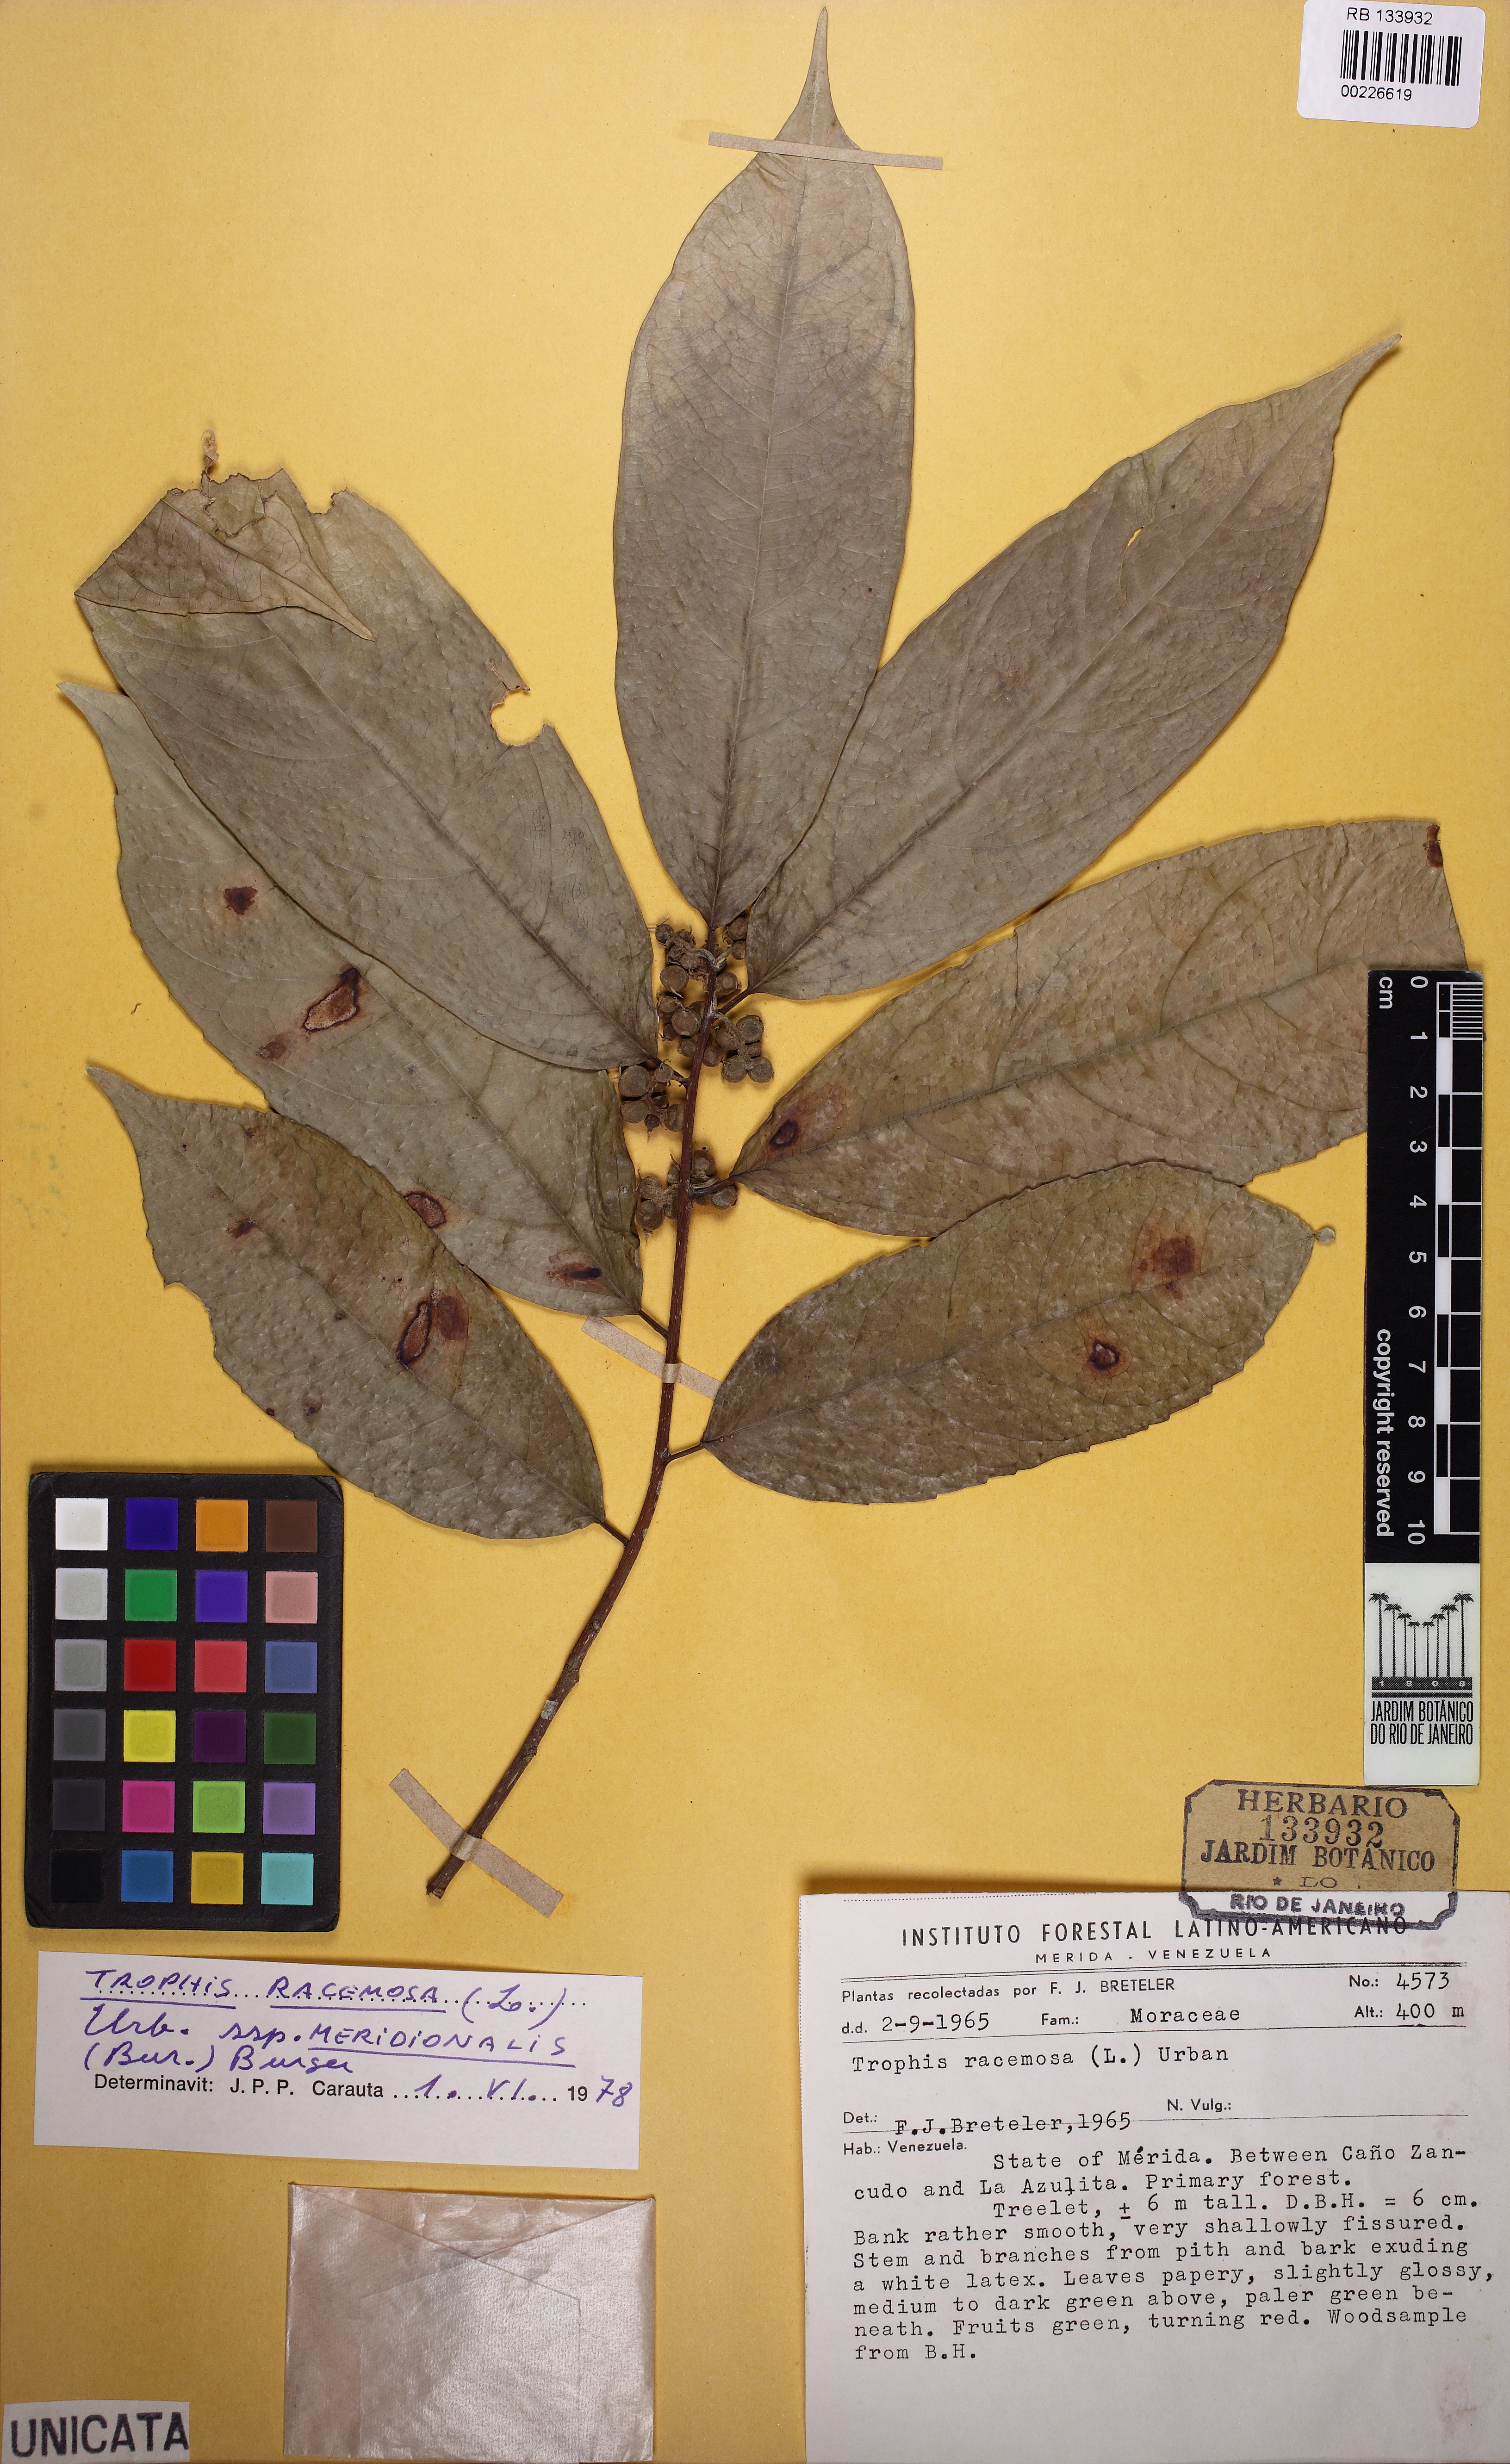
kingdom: Plantae
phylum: Tracheophyta
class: Magnoliopsida
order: Rosales
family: Moraceae
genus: Trophis
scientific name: Trophis racemosa
